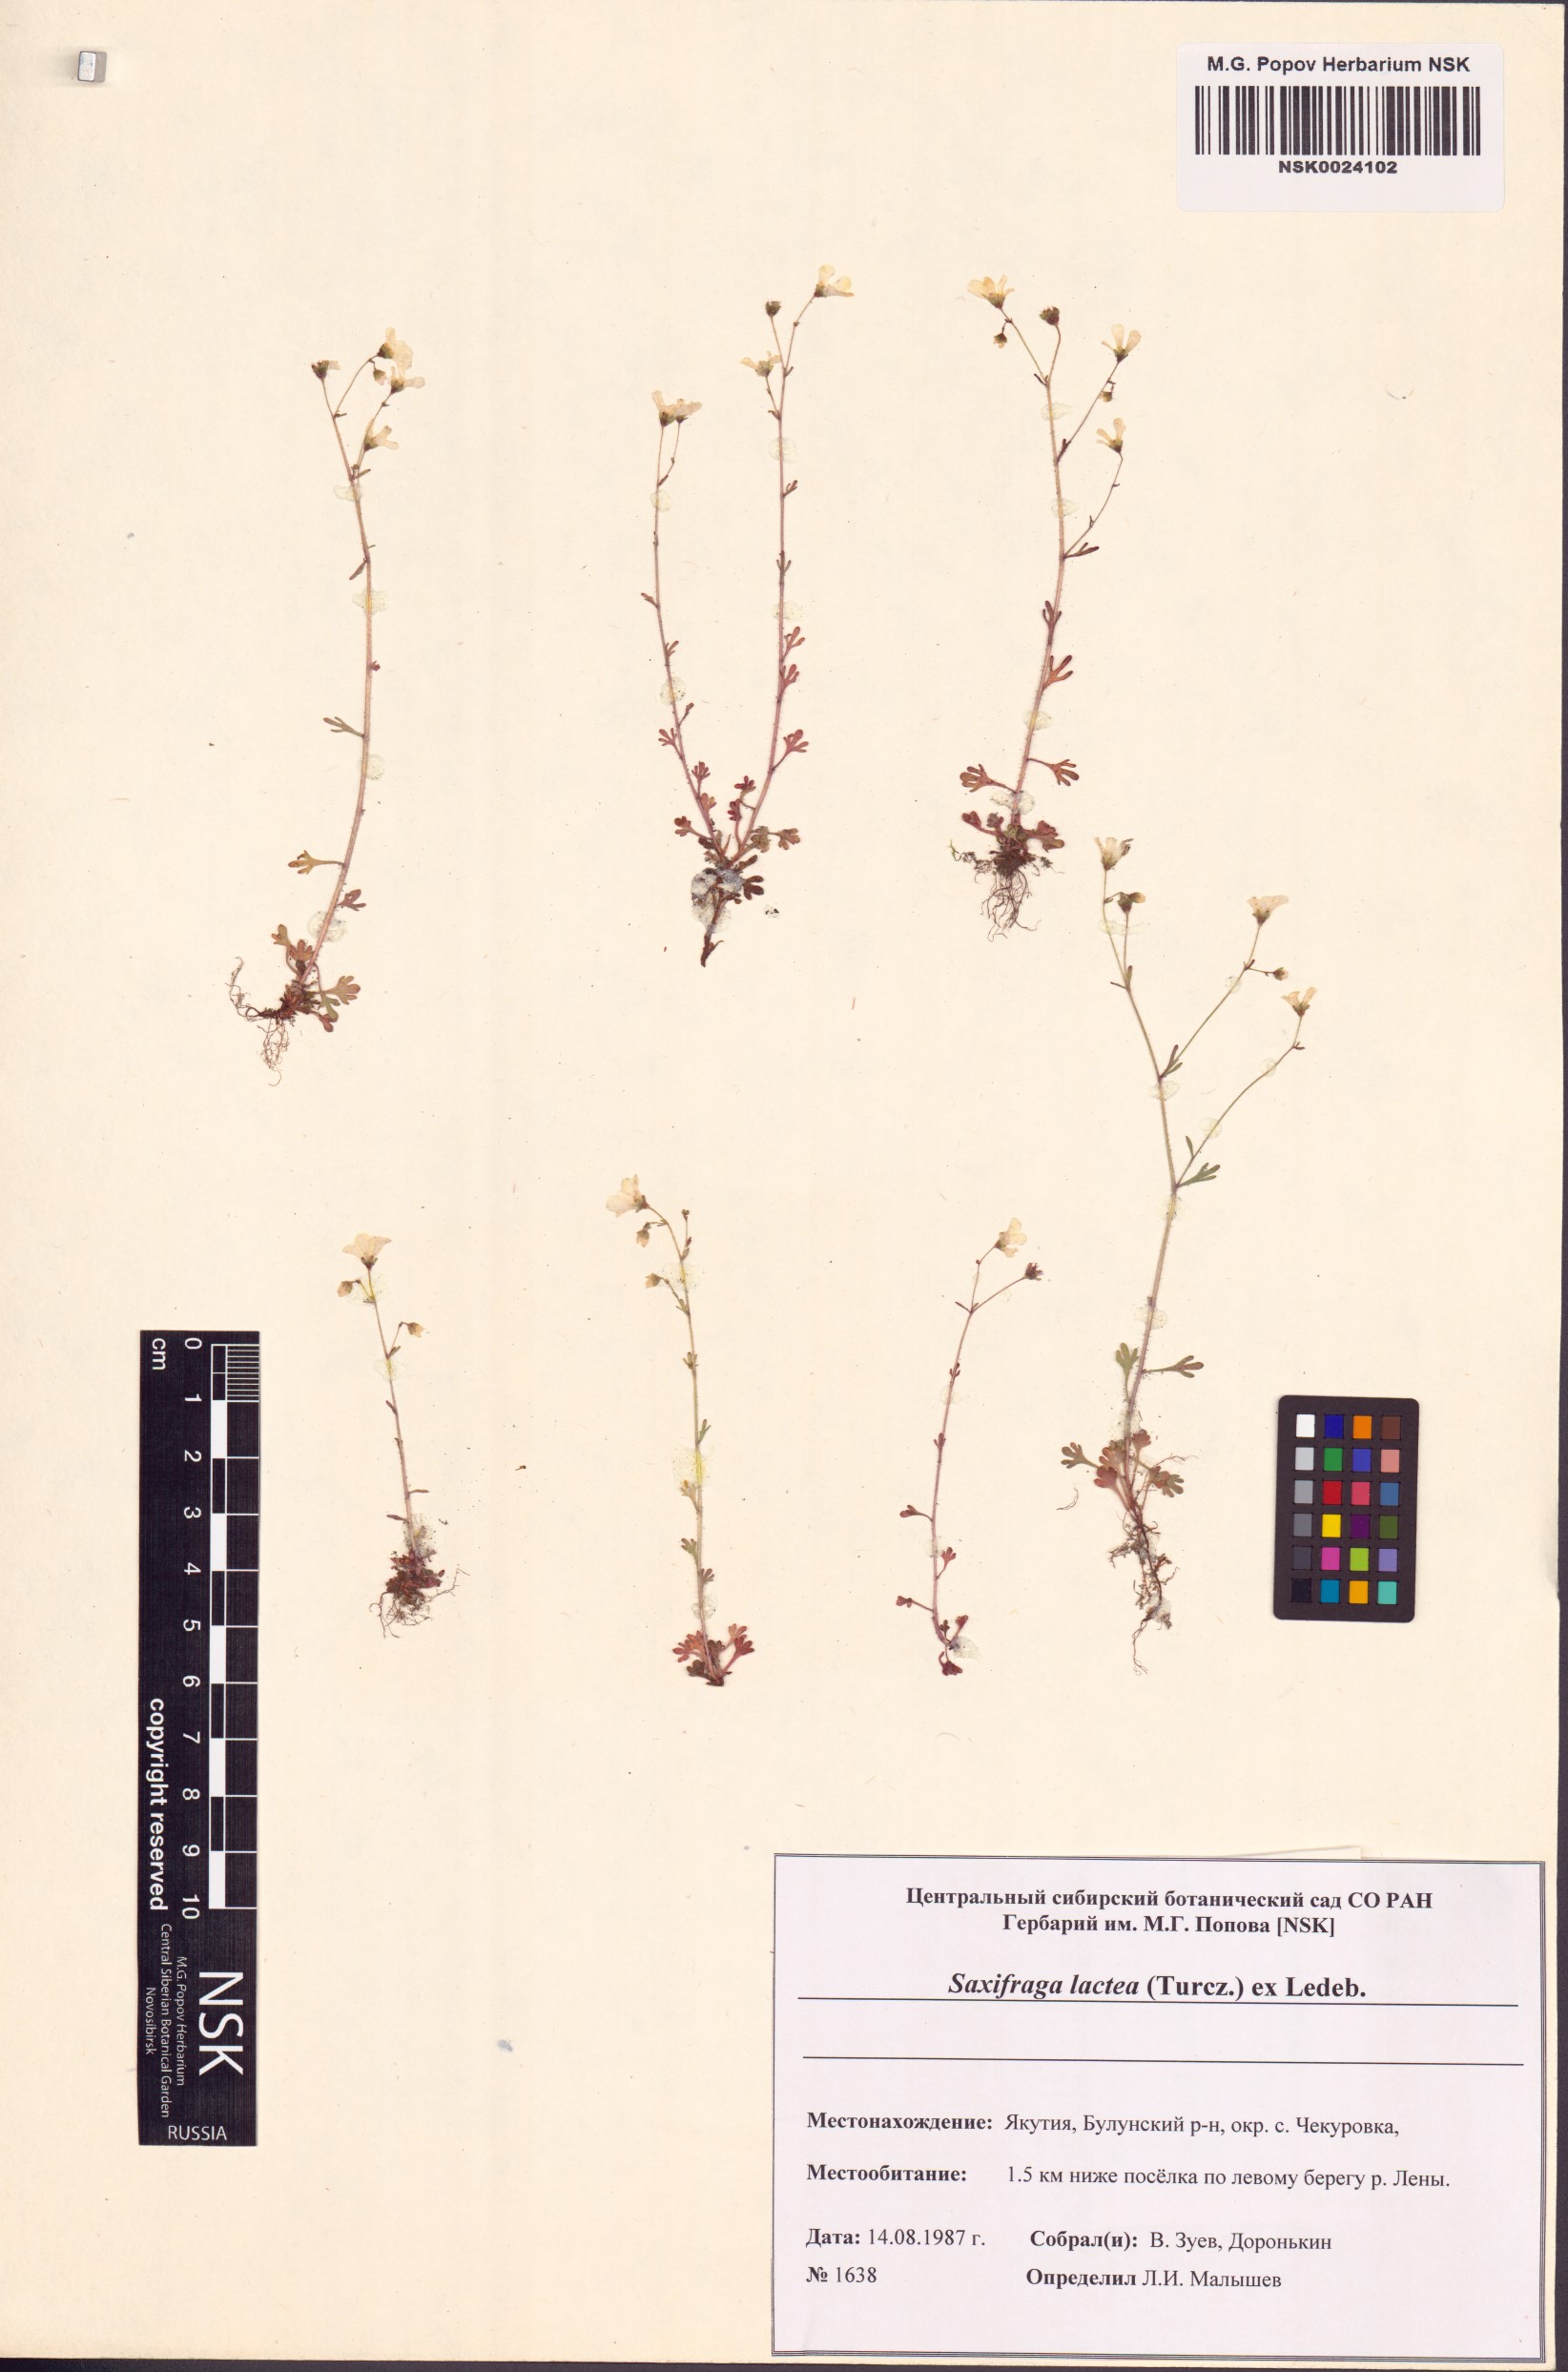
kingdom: Plantae
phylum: Tracheophyta
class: Magnoliopsida
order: Saxifragales
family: Saxifragaceae
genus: Saxifraga
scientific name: Saxifraga lactea
